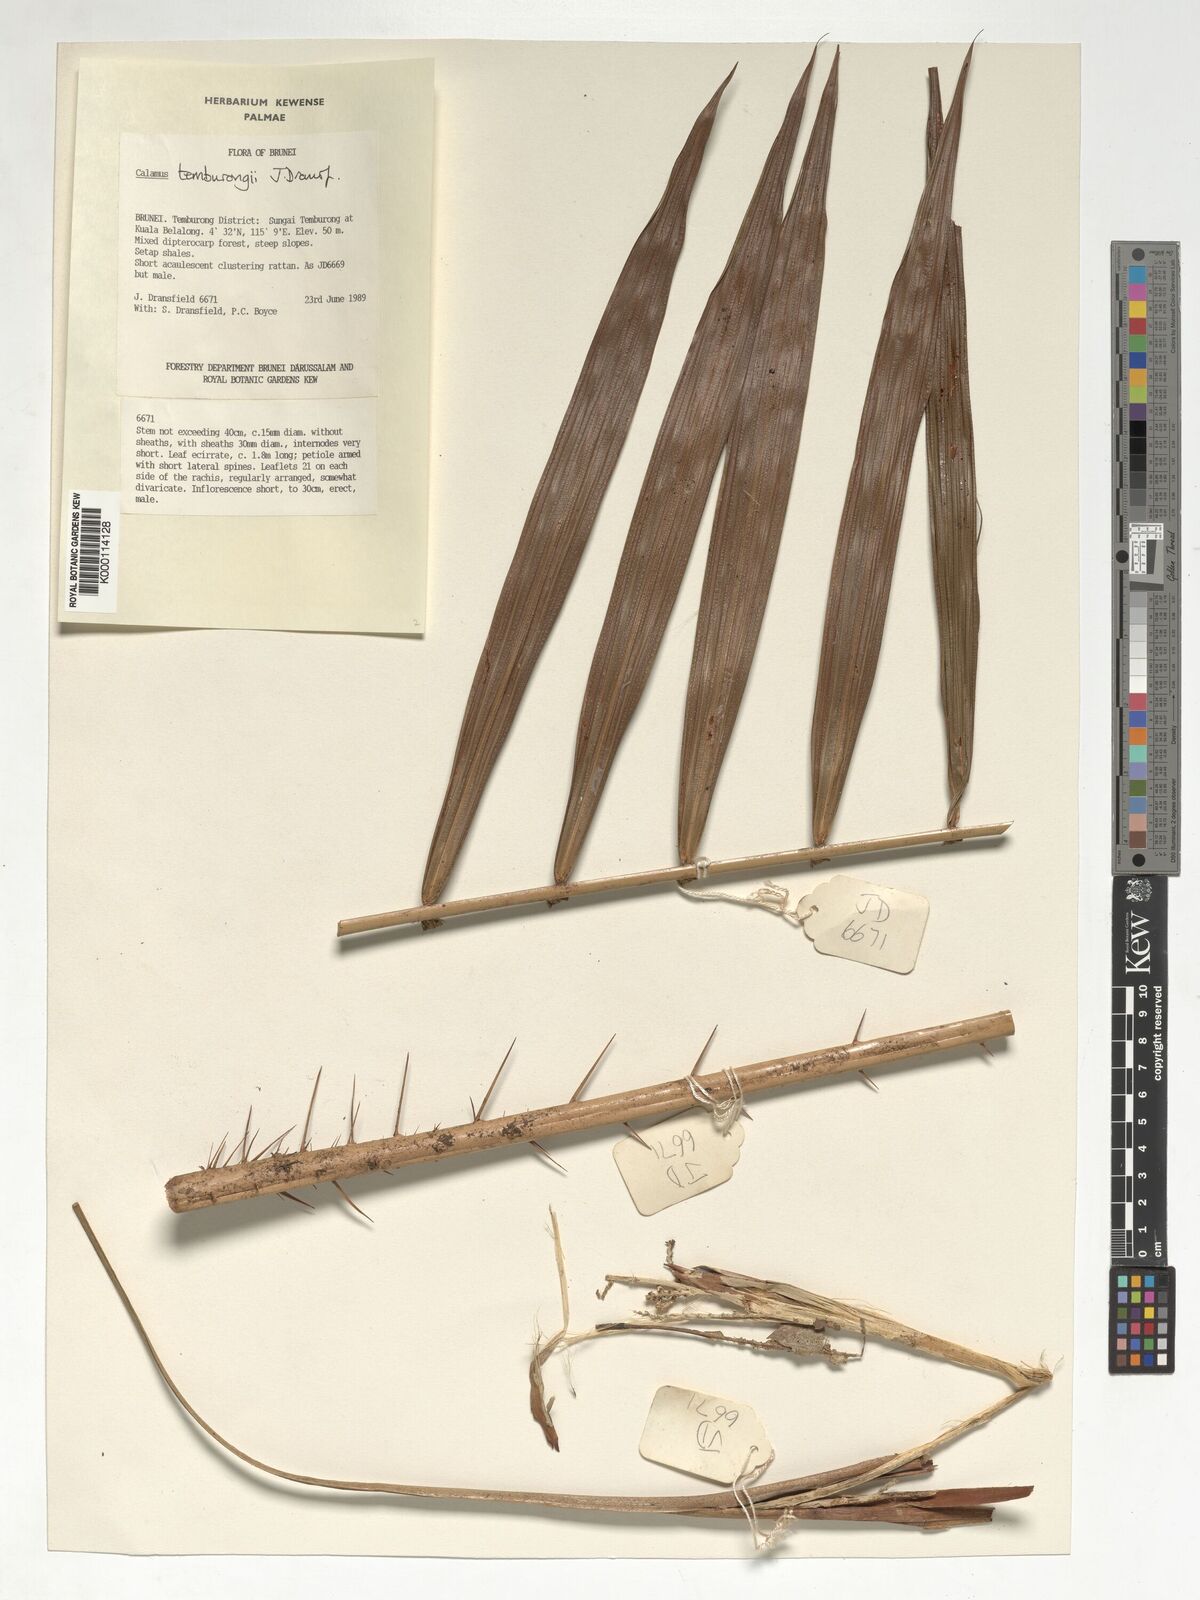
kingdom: Plantae
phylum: Tracheophyta
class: Liliopsida
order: Arecales
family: Arecaceae
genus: Calamus
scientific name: Calamus acanthochlamys
